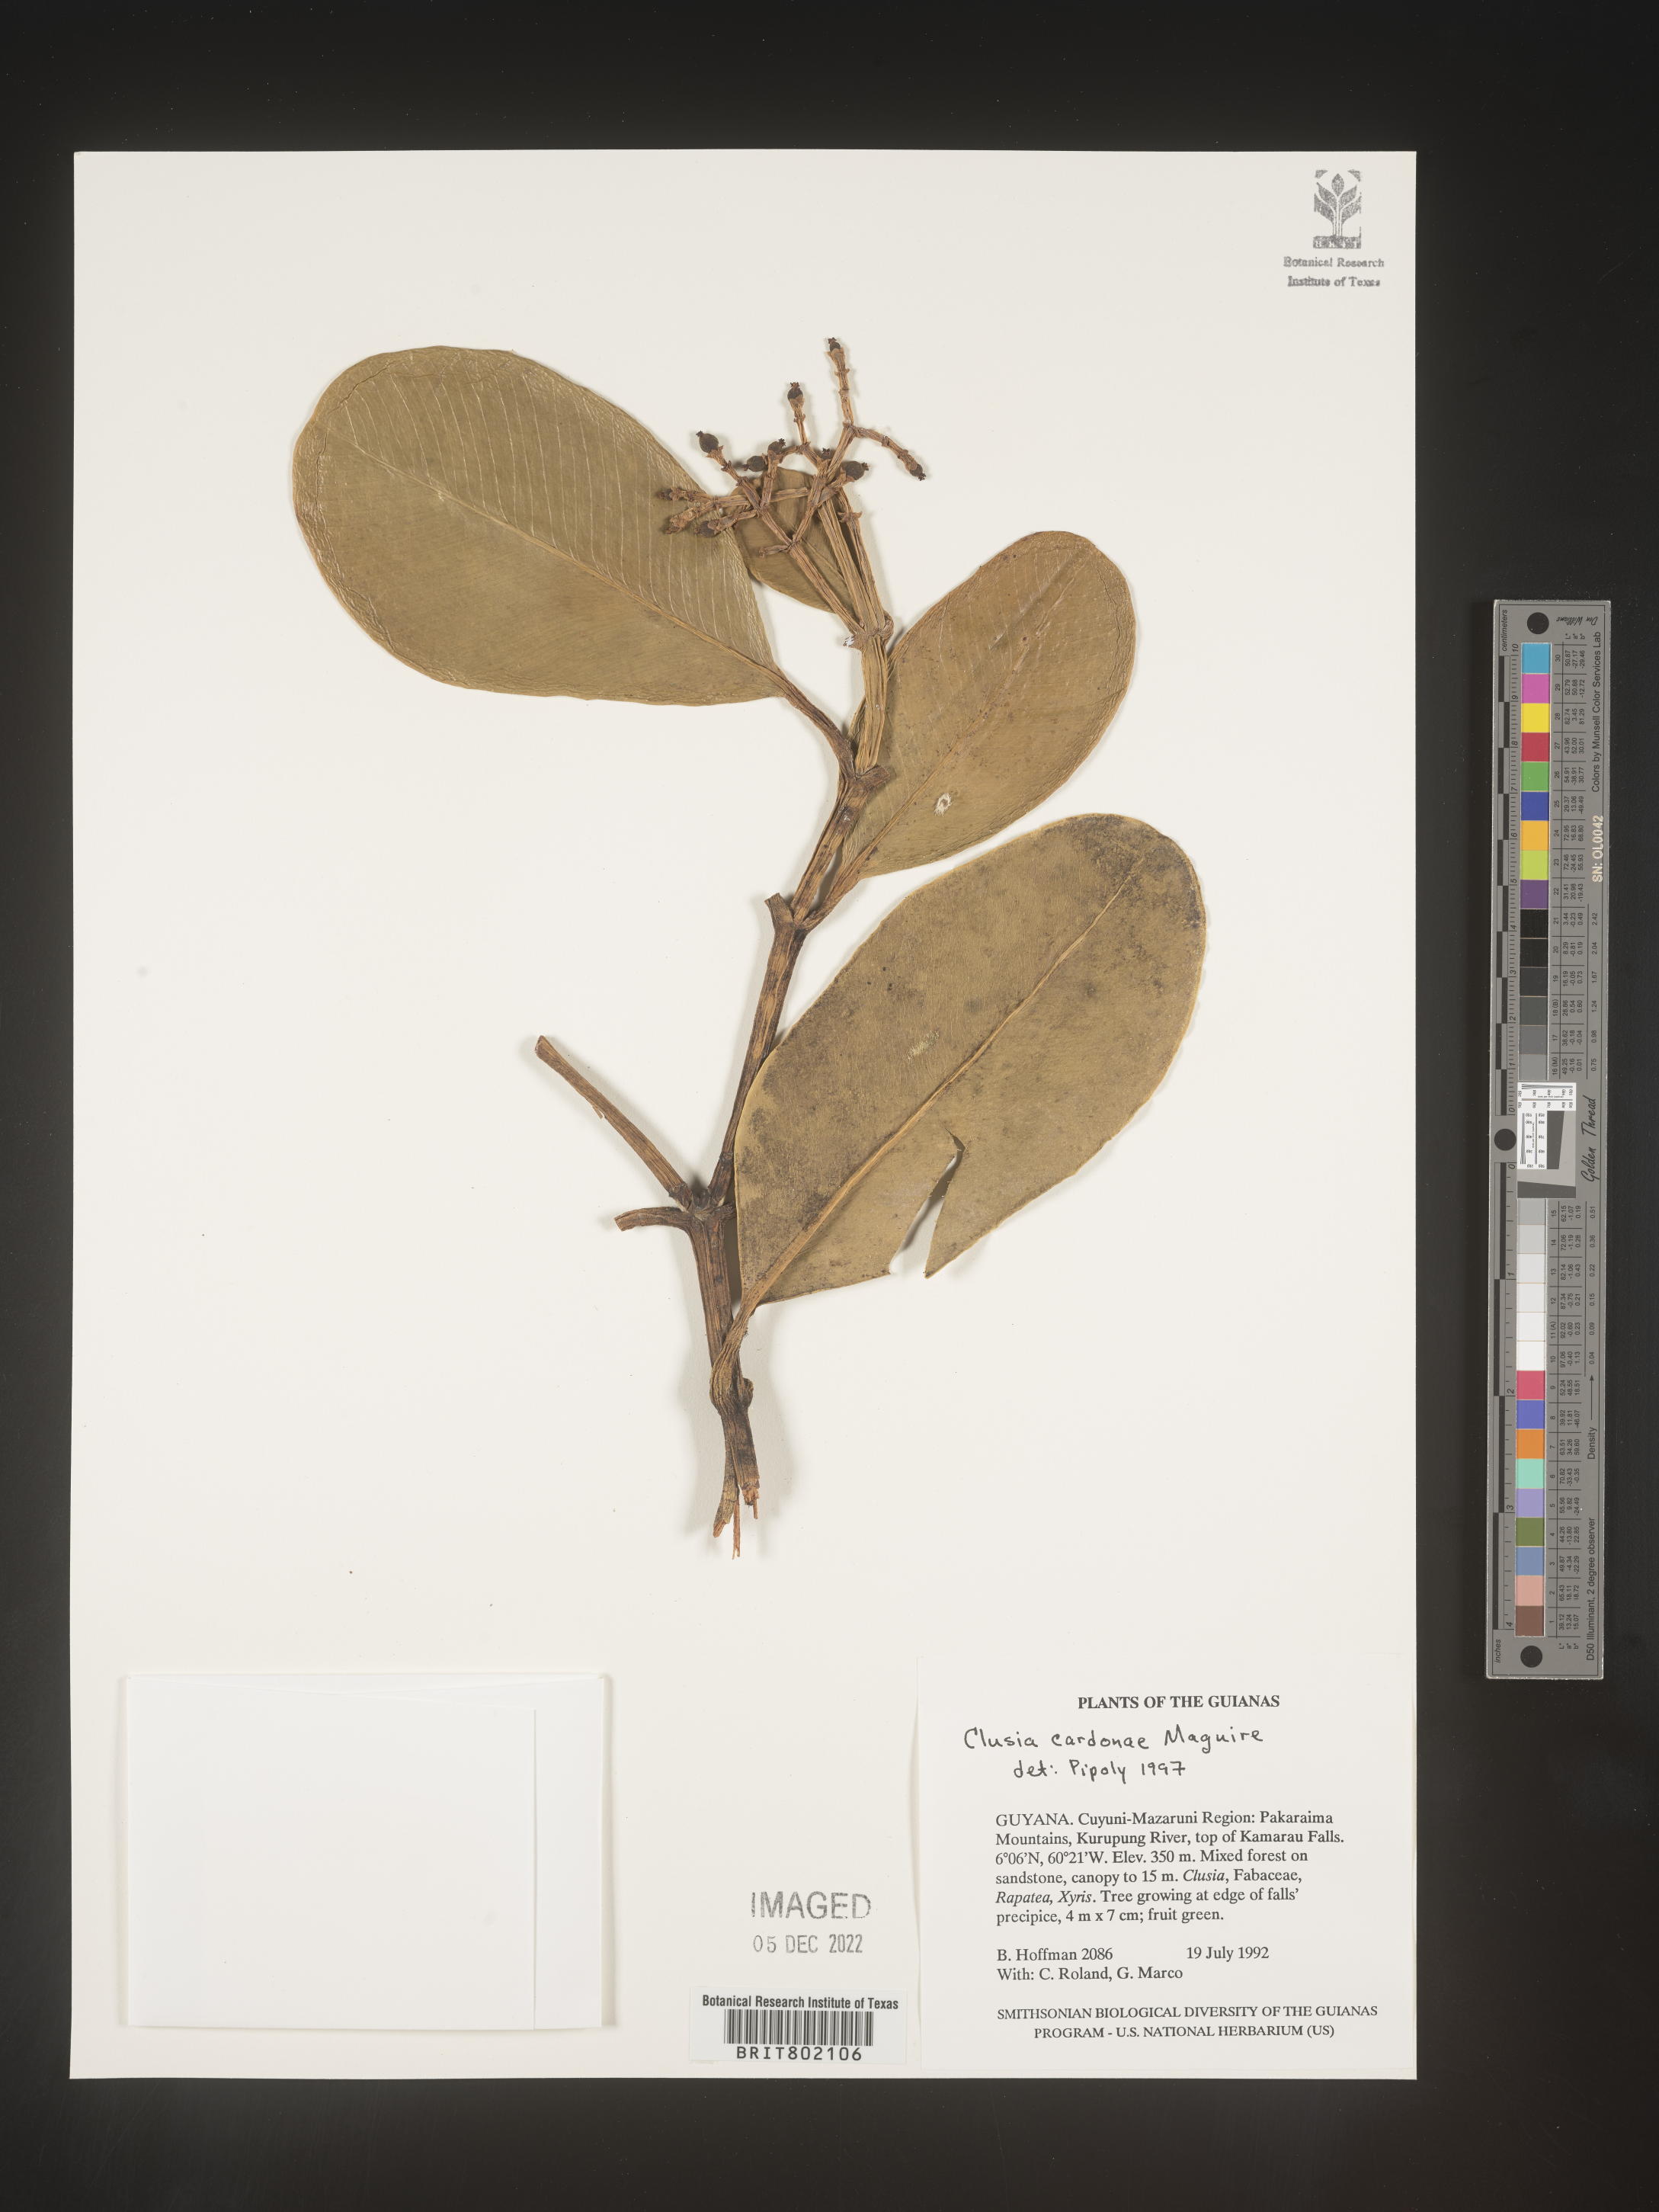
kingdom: Plantae
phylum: Tracheophyta
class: Magnoliopsida
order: Malpighiales
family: Clusiaceae
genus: Clusia
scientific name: Clusia
